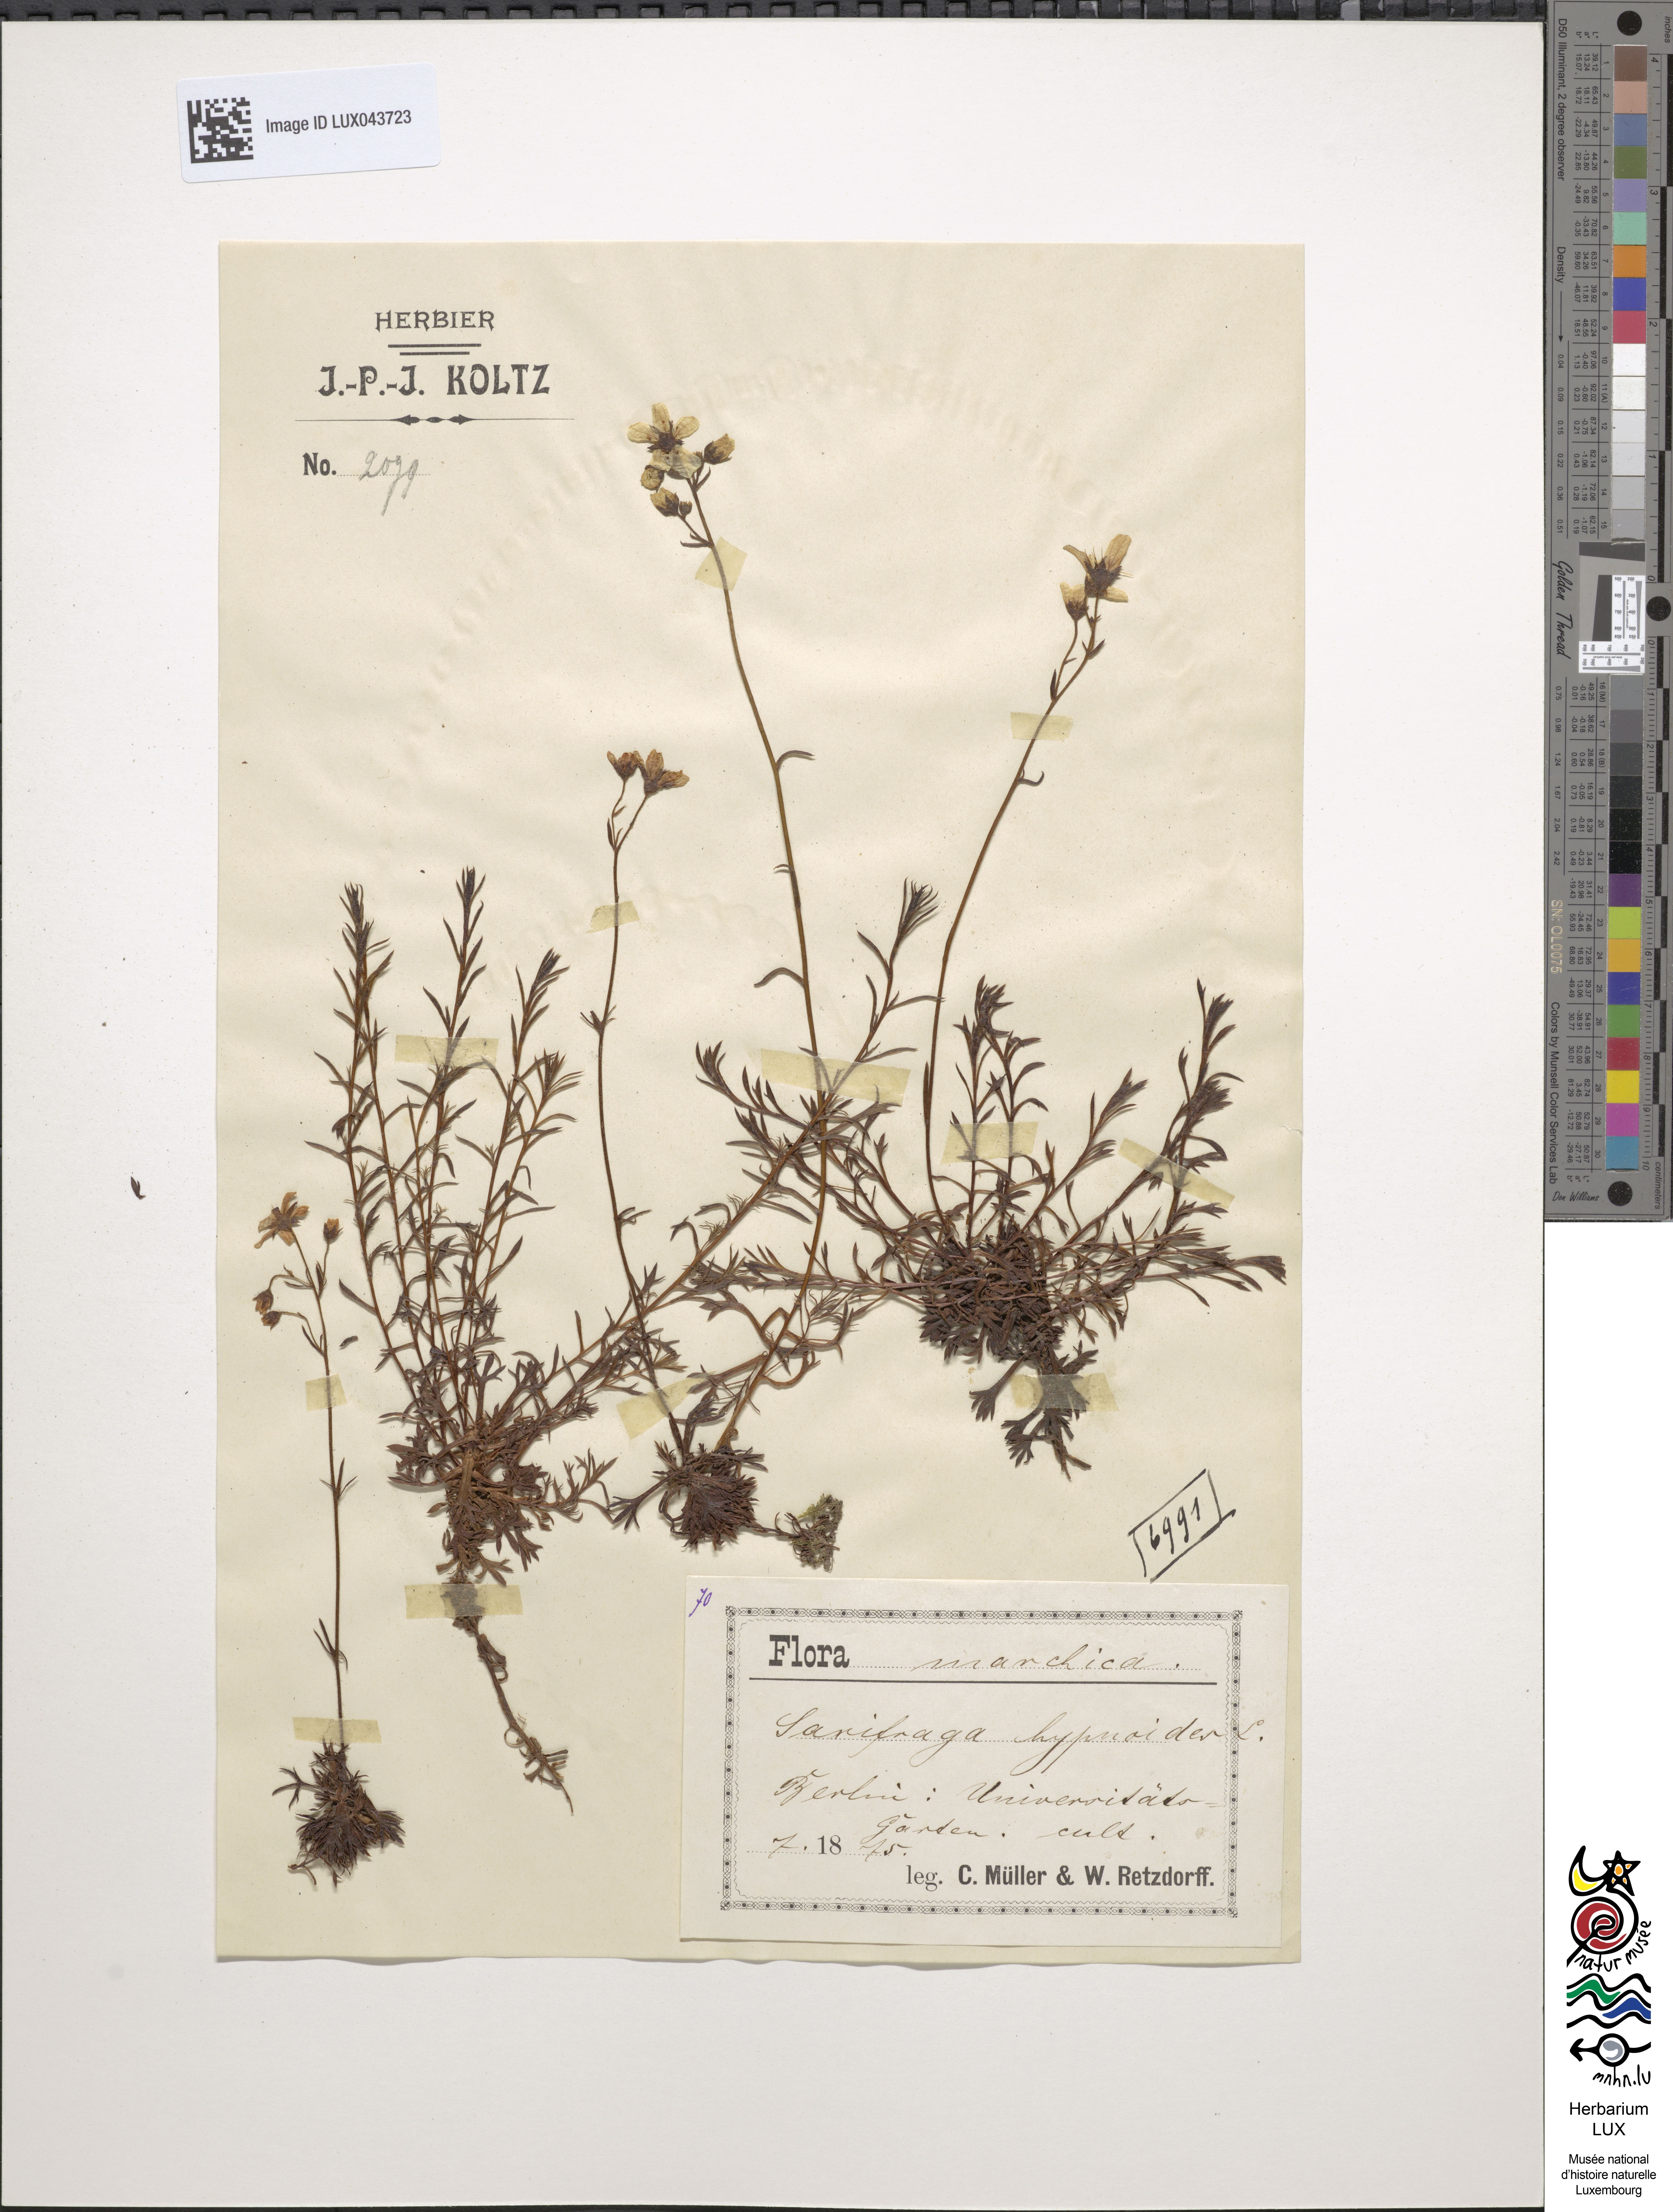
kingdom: Plantae
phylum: Tracheophyta
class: Magnoliopsida
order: Saxifragales
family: Saxifragaceae
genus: Saxifraga
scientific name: Saxifraga hypnoides
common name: Mossy saxifrage
